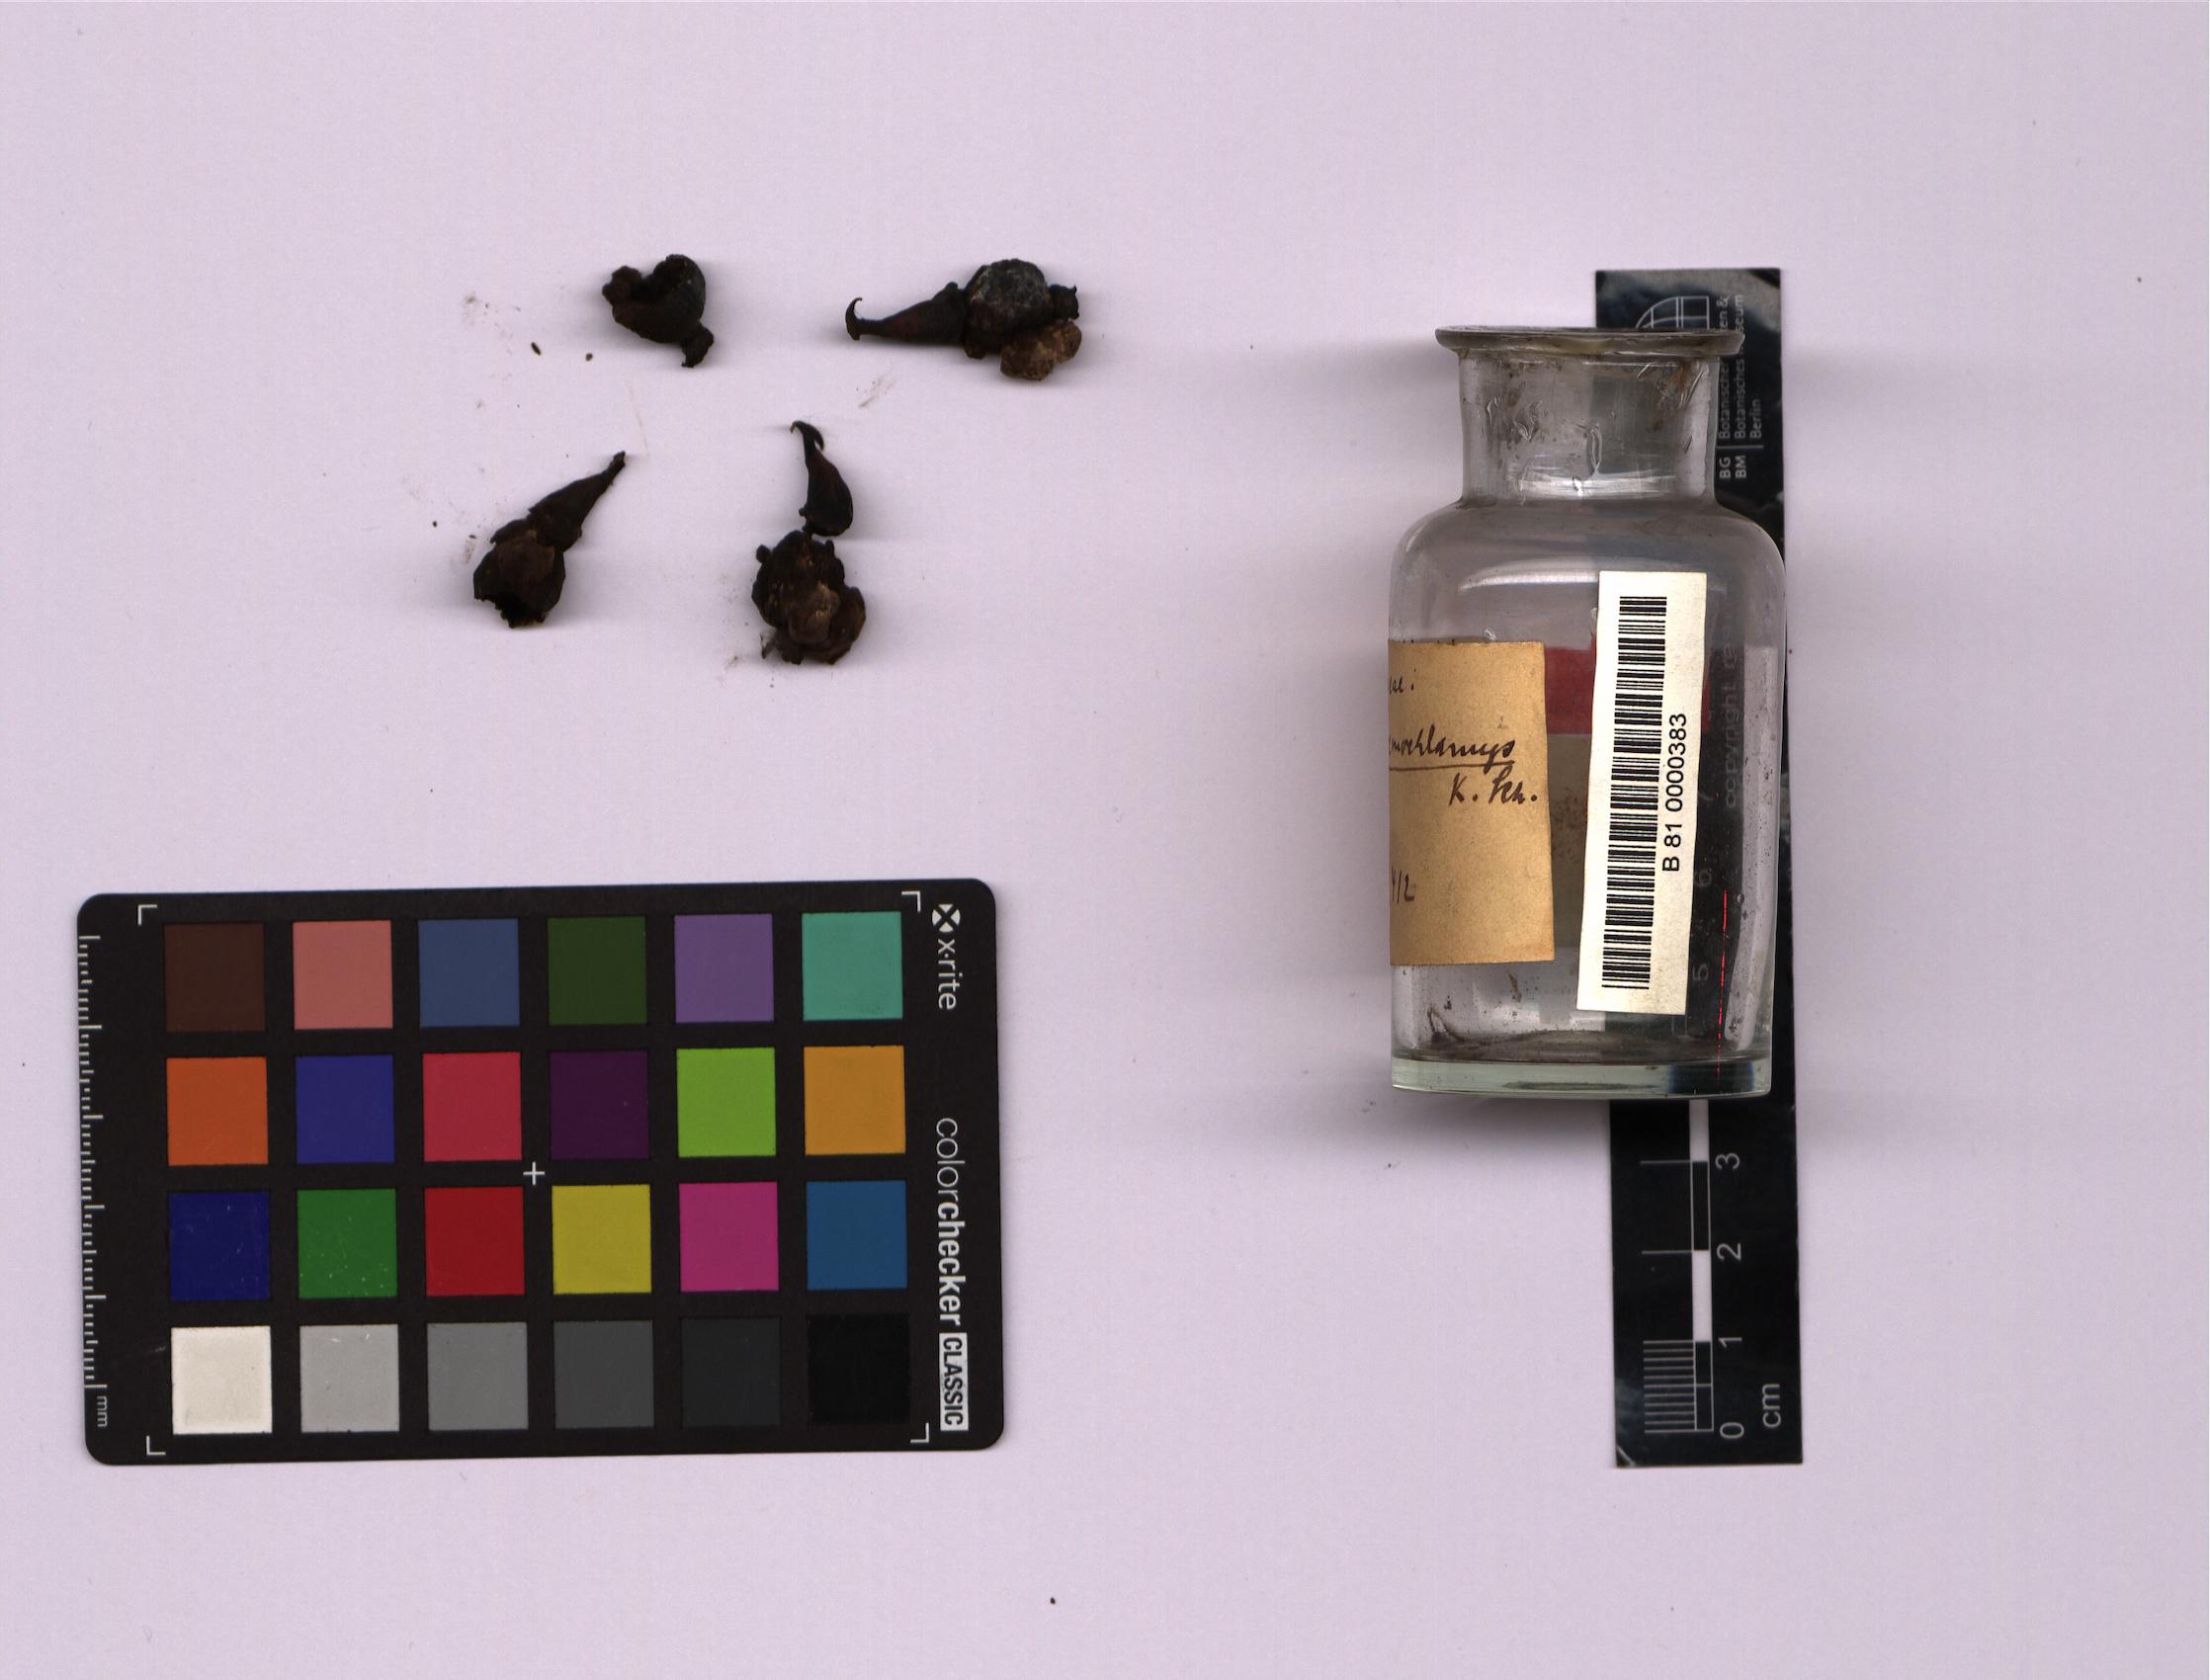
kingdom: Plantae
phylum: Tracheophyta
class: Liliopsida
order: Zingiberales
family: Zingiberaceae
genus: Alpinia
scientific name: Alpinia eremochlamys
